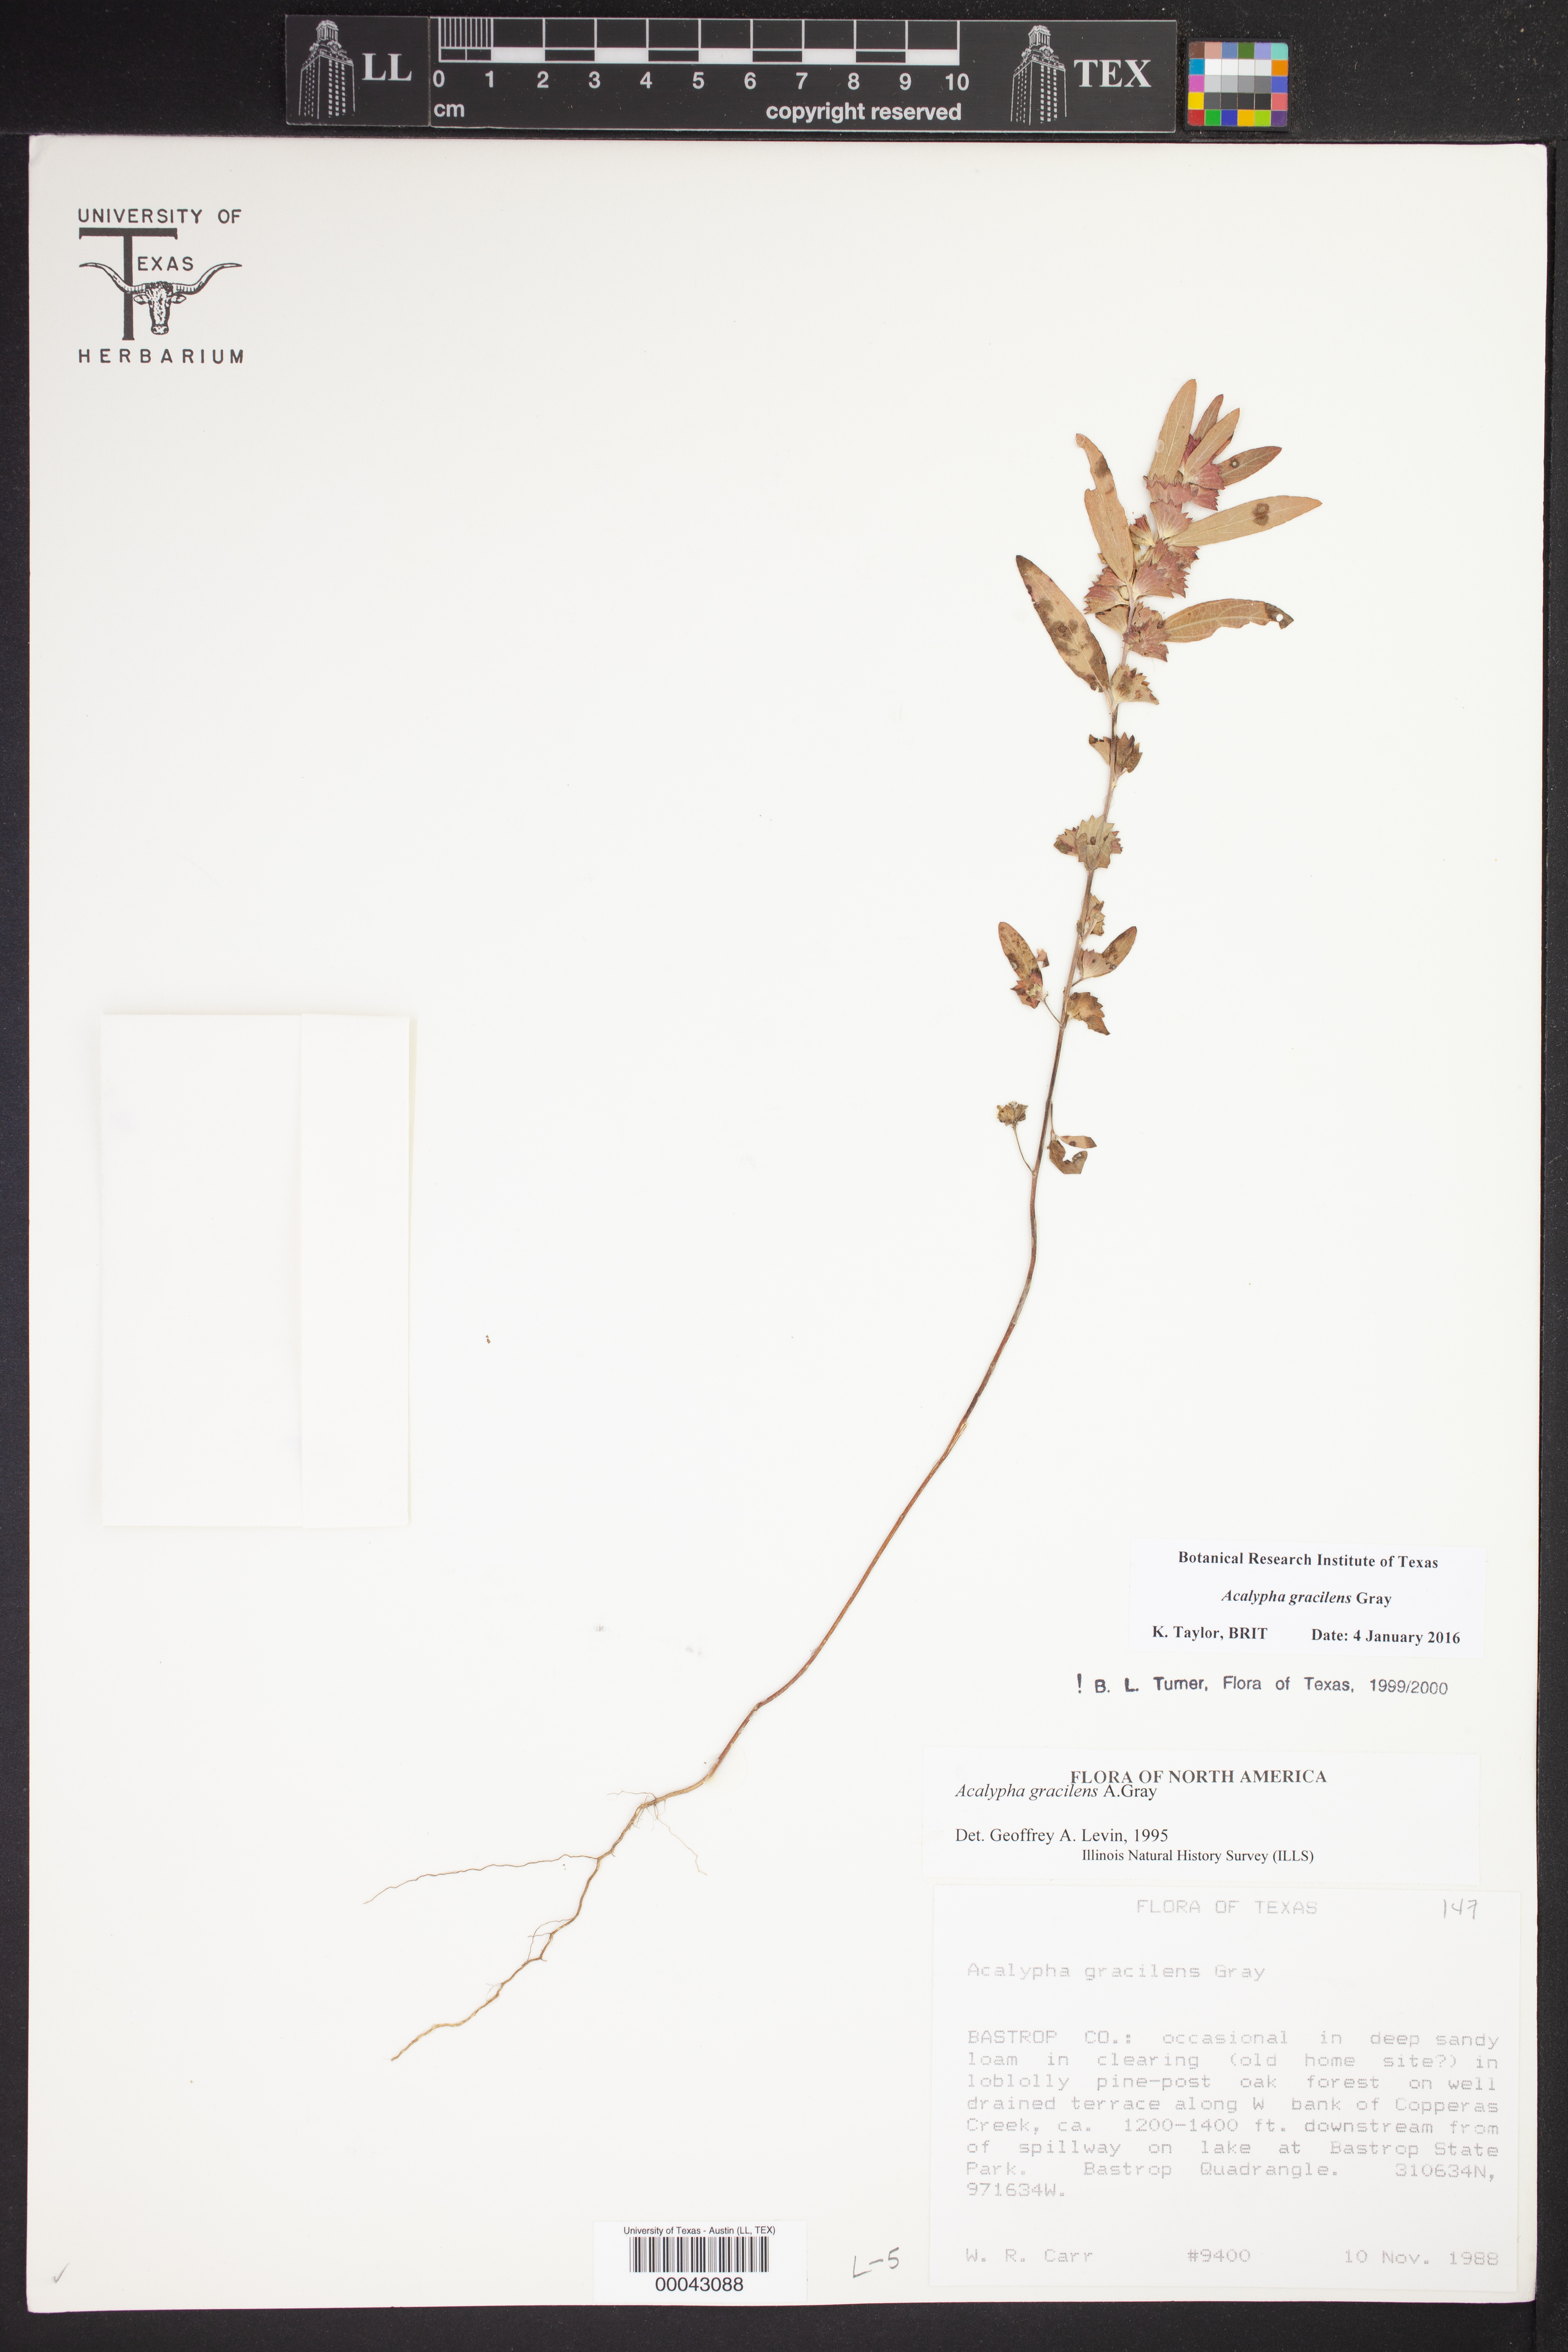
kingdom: Plantae
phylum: Tracheophyta
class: Magnoliopsida
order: Malpighiales
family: Euphorbiaceae
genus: Acalypha
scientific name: Acalypha gracilens
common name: Slender three-seeded mercury
